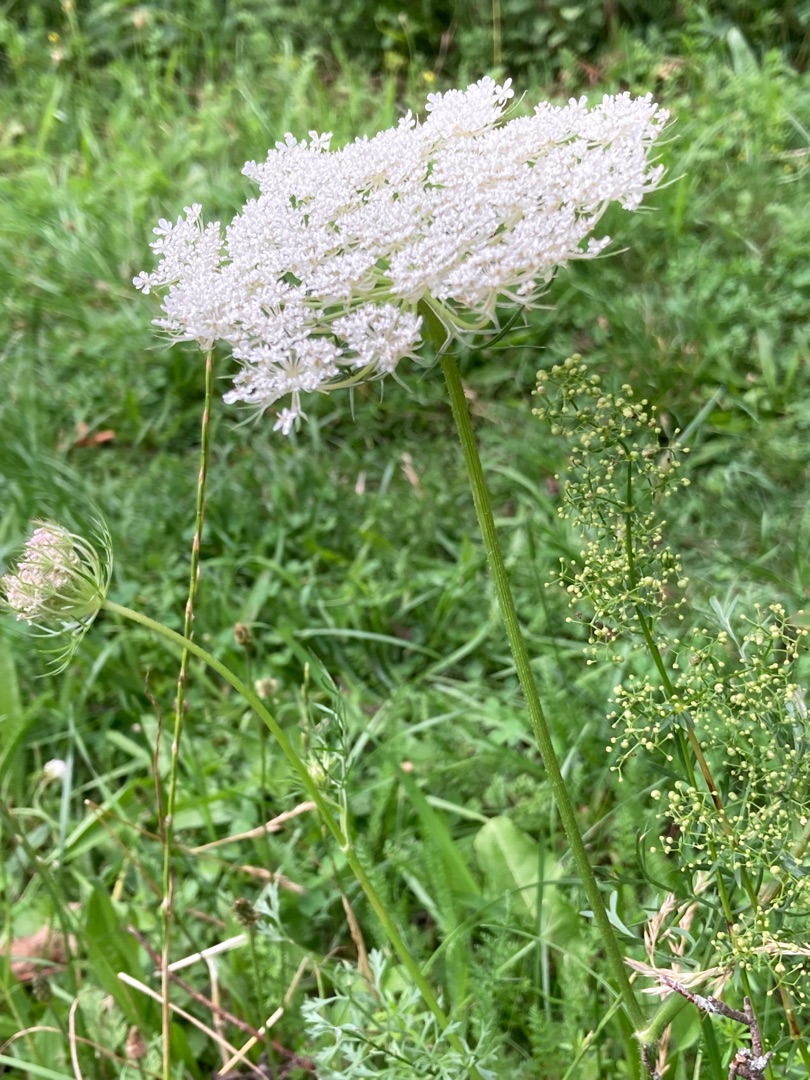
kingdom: Plantae
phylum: Tracheophyta
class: Magnoliopsida
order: Apiales
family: Apiaceae
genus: Daucus
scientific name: Daucus carota
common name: Vild gulerod
